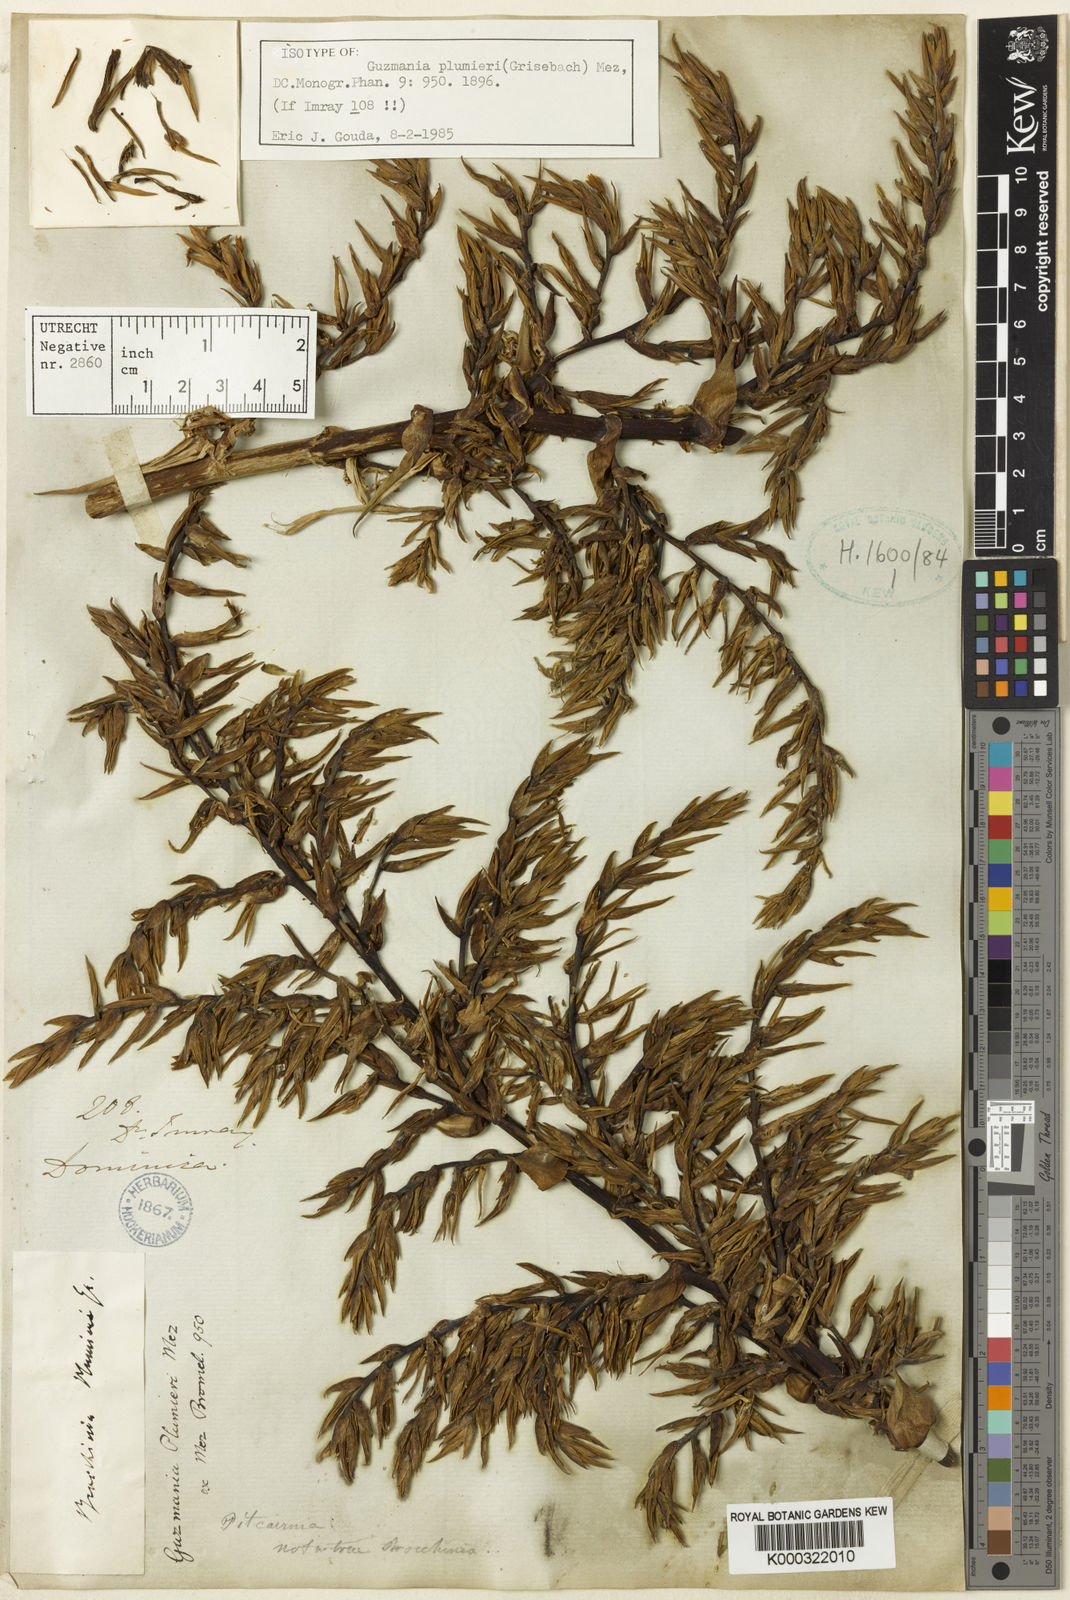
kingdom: Plantae
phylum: Tracheophyta
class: Liliopsida
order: Poales
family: Bromeliaceae
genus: Guzmania
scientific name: Guzmania plumieri
